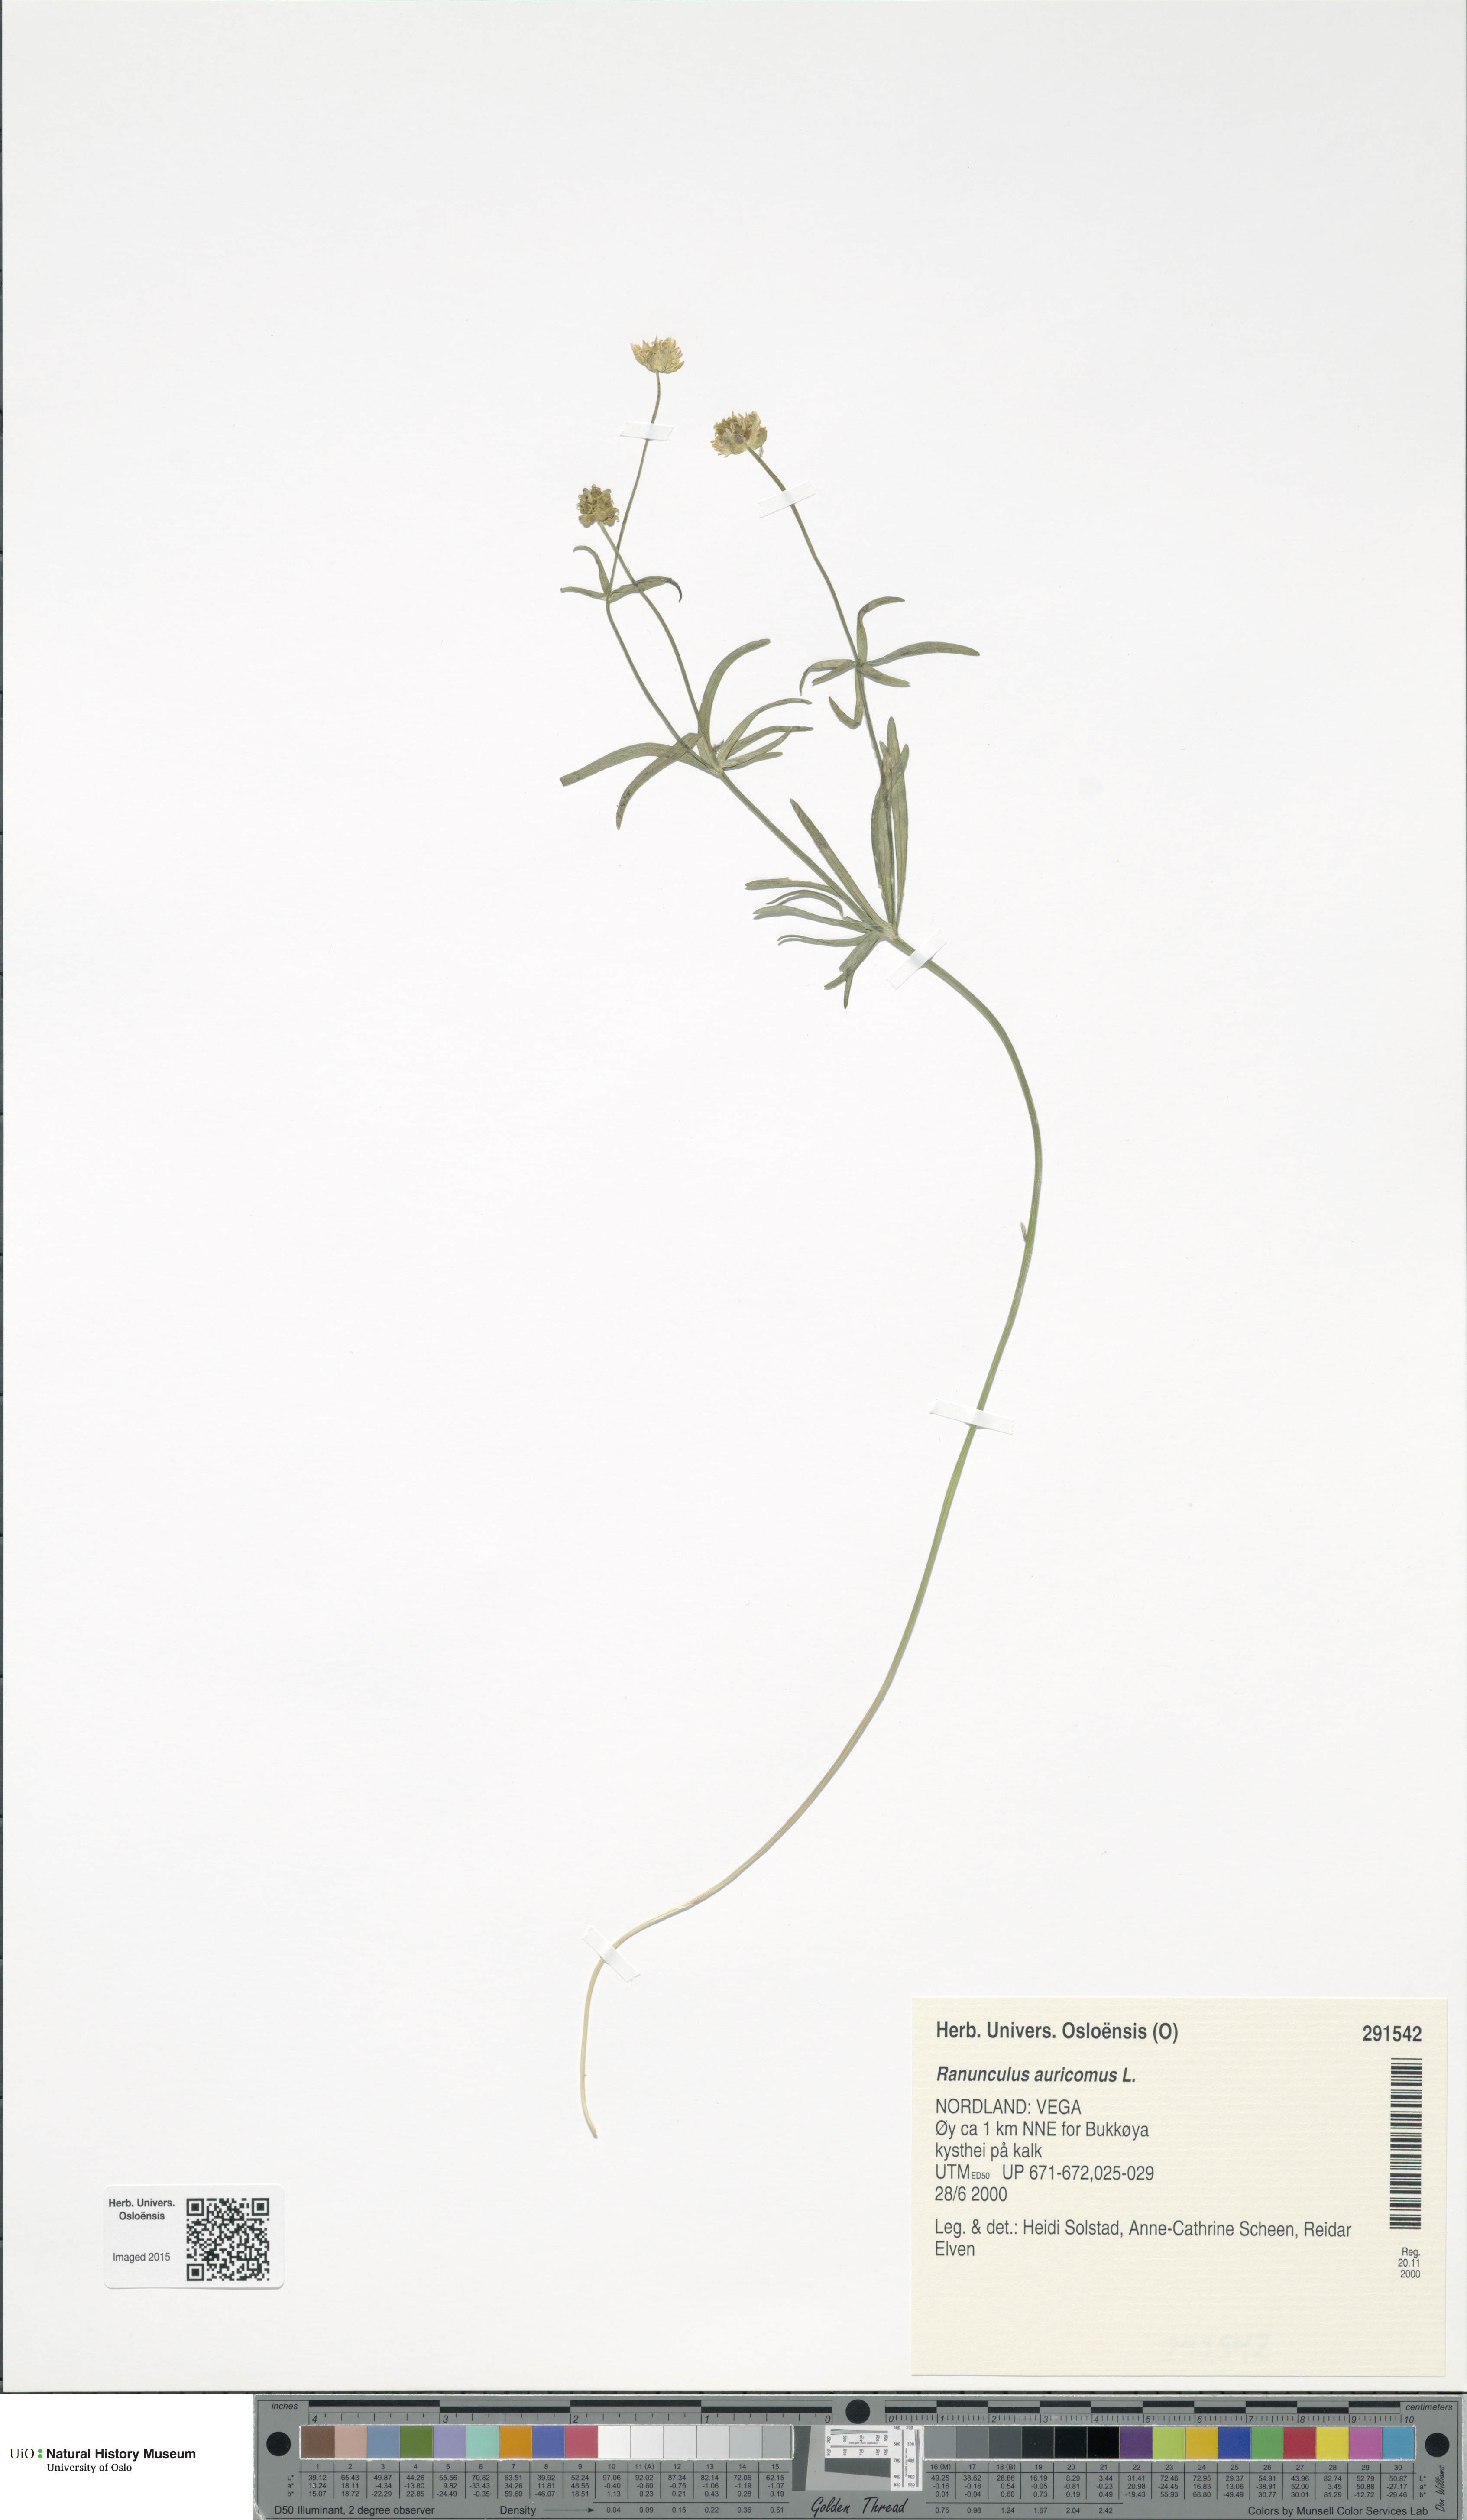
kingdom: Plantae
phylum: Tracheophyta
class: Magnoliopsida
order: Ranunculales
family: Ranunculaceae
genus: Ranunculus
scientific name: Ranunculus auricomus
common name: Goldilocks buttercup
